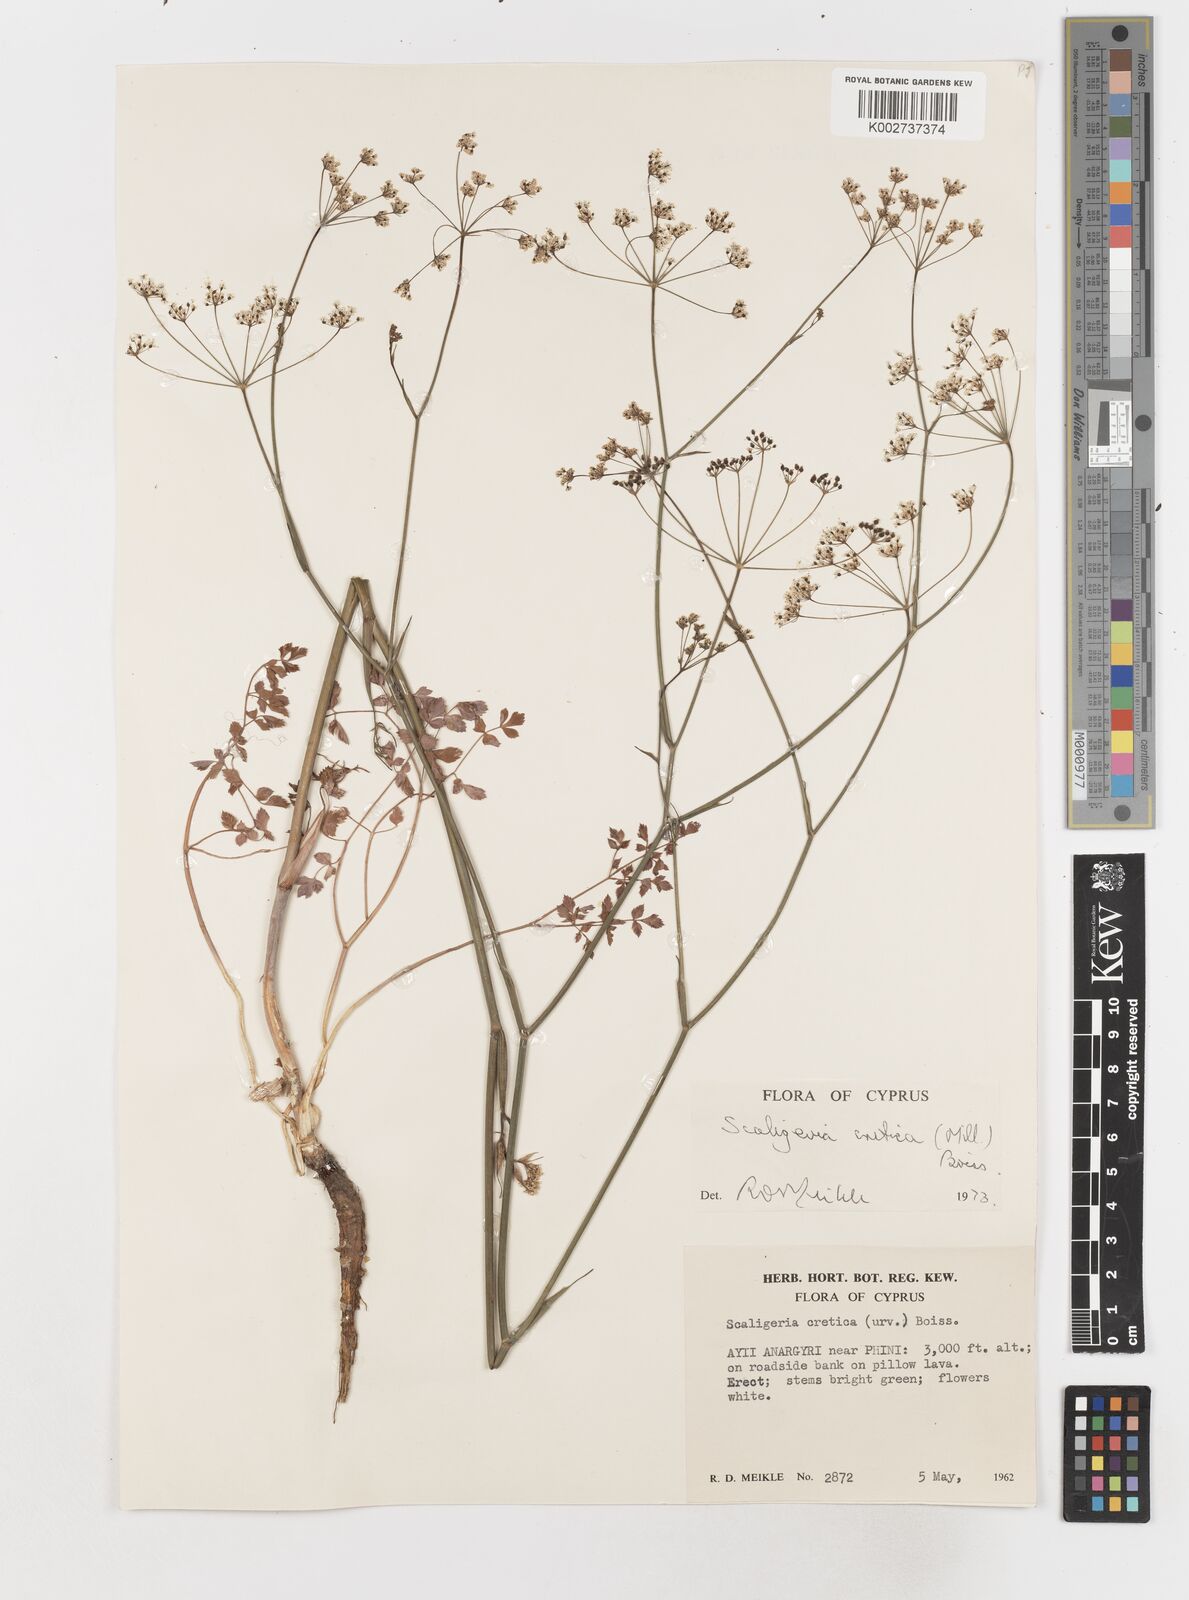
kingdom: Plantae
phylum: Tracheophyta
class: Magnoliopsida
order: Apiales
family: Apiaceae
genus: Scaligeria
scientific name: Scaligeria
